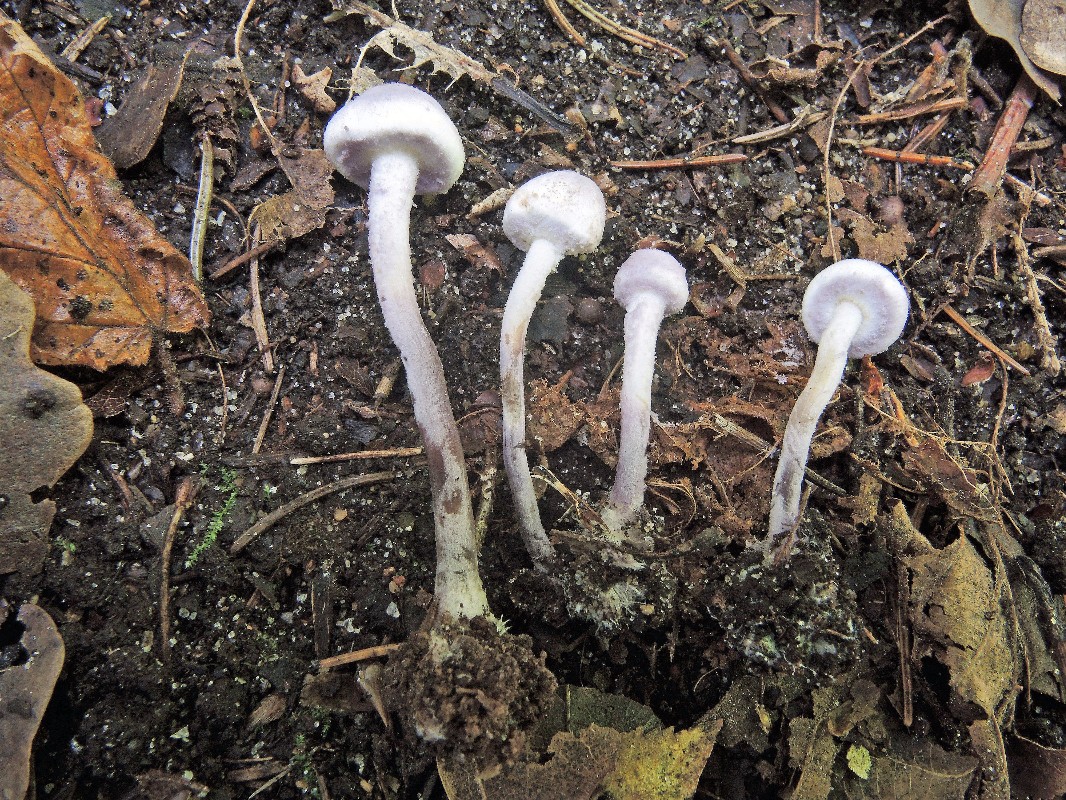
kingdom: Fungi
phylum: Basidiomycota
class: Agaricomycetes
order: Agaricales
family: Agaricaceae
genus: Cystolepiota
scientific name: Cystolepiota bucknallii
